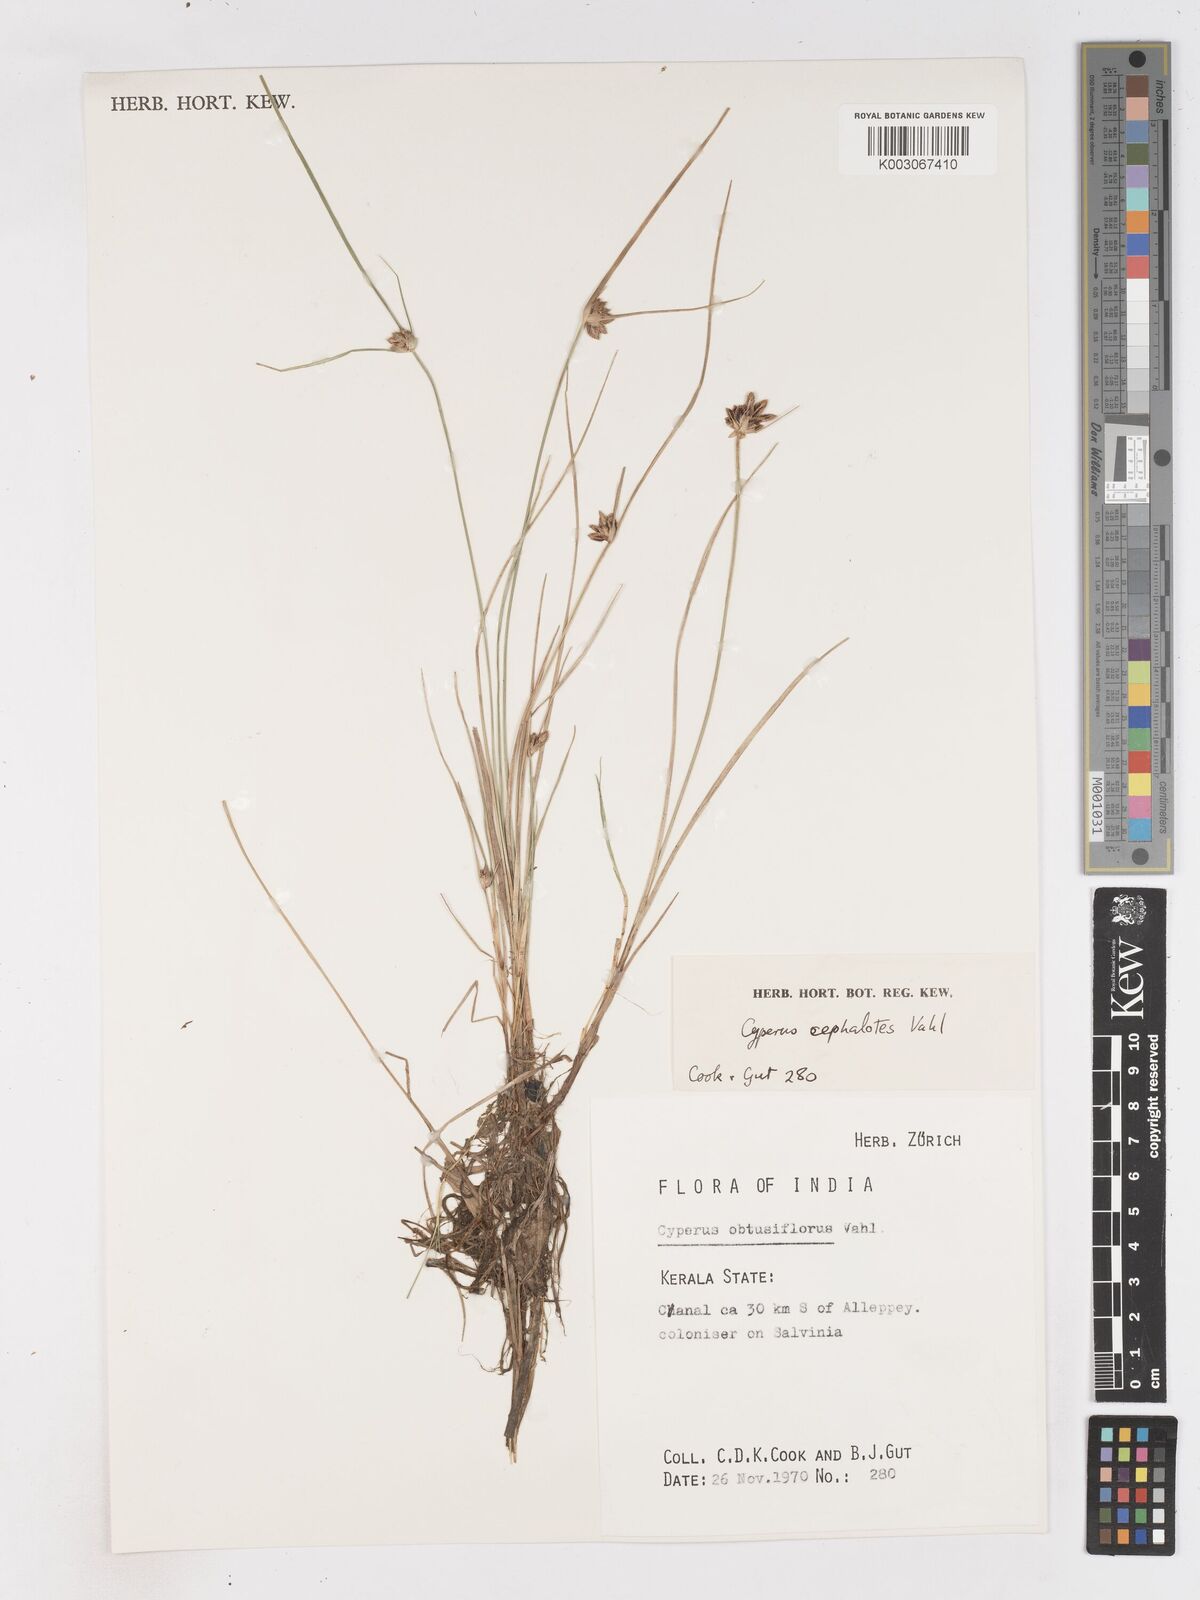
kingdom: Plantae
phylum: Tracheophyta
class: Liliopsida
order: Poales
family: Cyperaceae
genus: Cyperus
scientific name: Cyperus cephalotes
